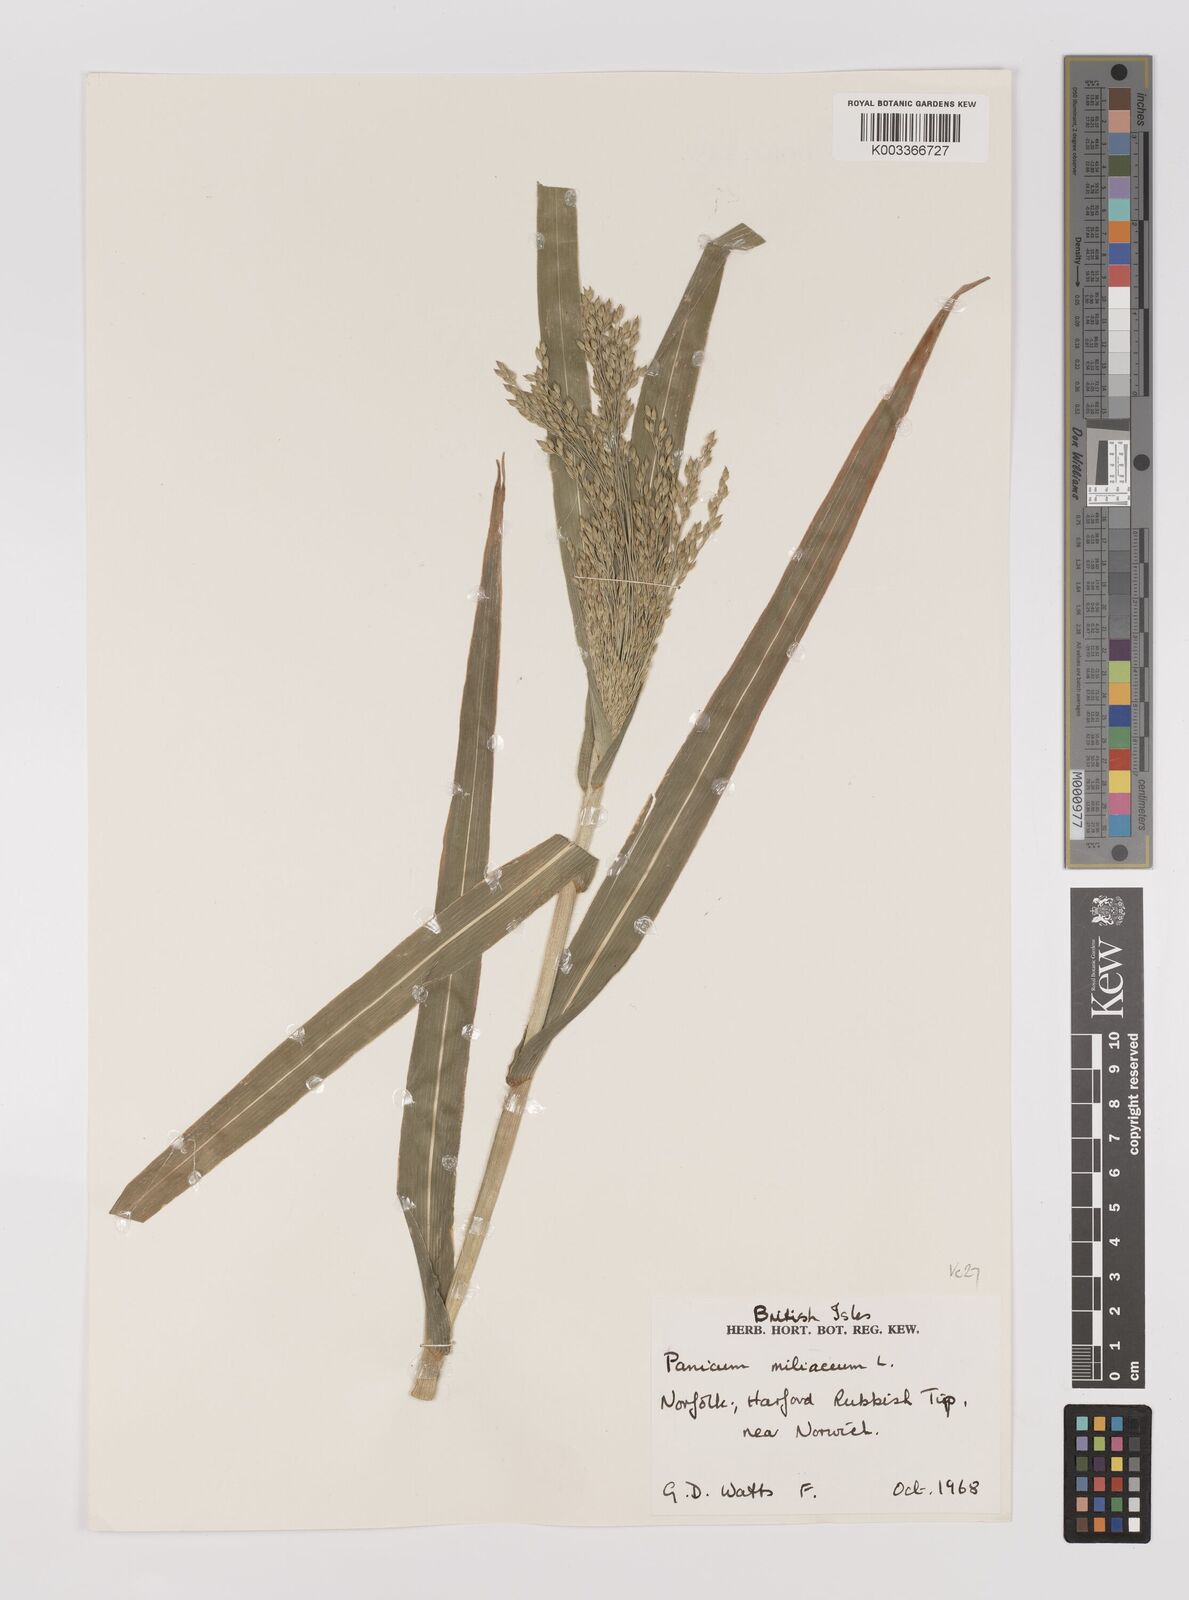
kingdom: Plantae
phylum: Tracheophyta
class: Liliopsida
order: Poales
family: Poaceae
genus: Panicum
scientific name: Panicum miliaceum
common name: Common millet
